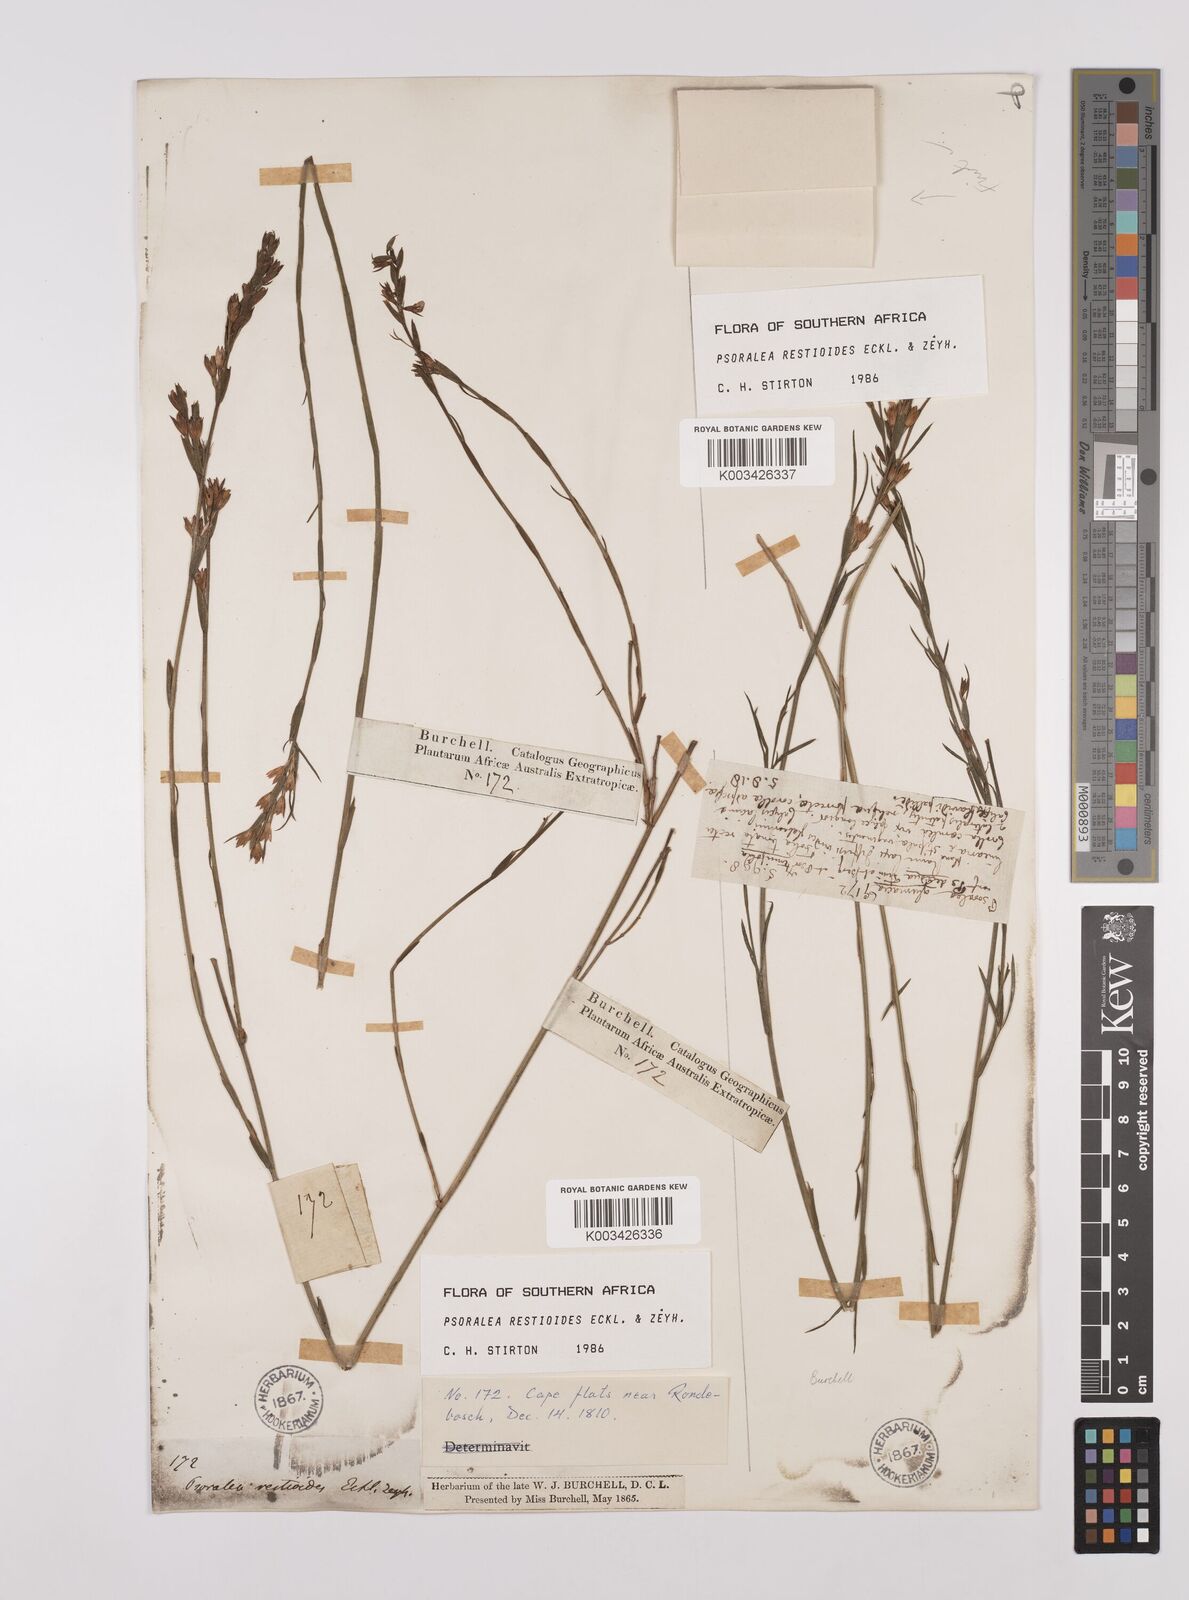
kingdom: Plantae
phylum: Tracheophyta
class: Magnoliopsida
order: Fabales
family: Fabaceae
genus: Psoralea
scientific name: Psoralea restioides
